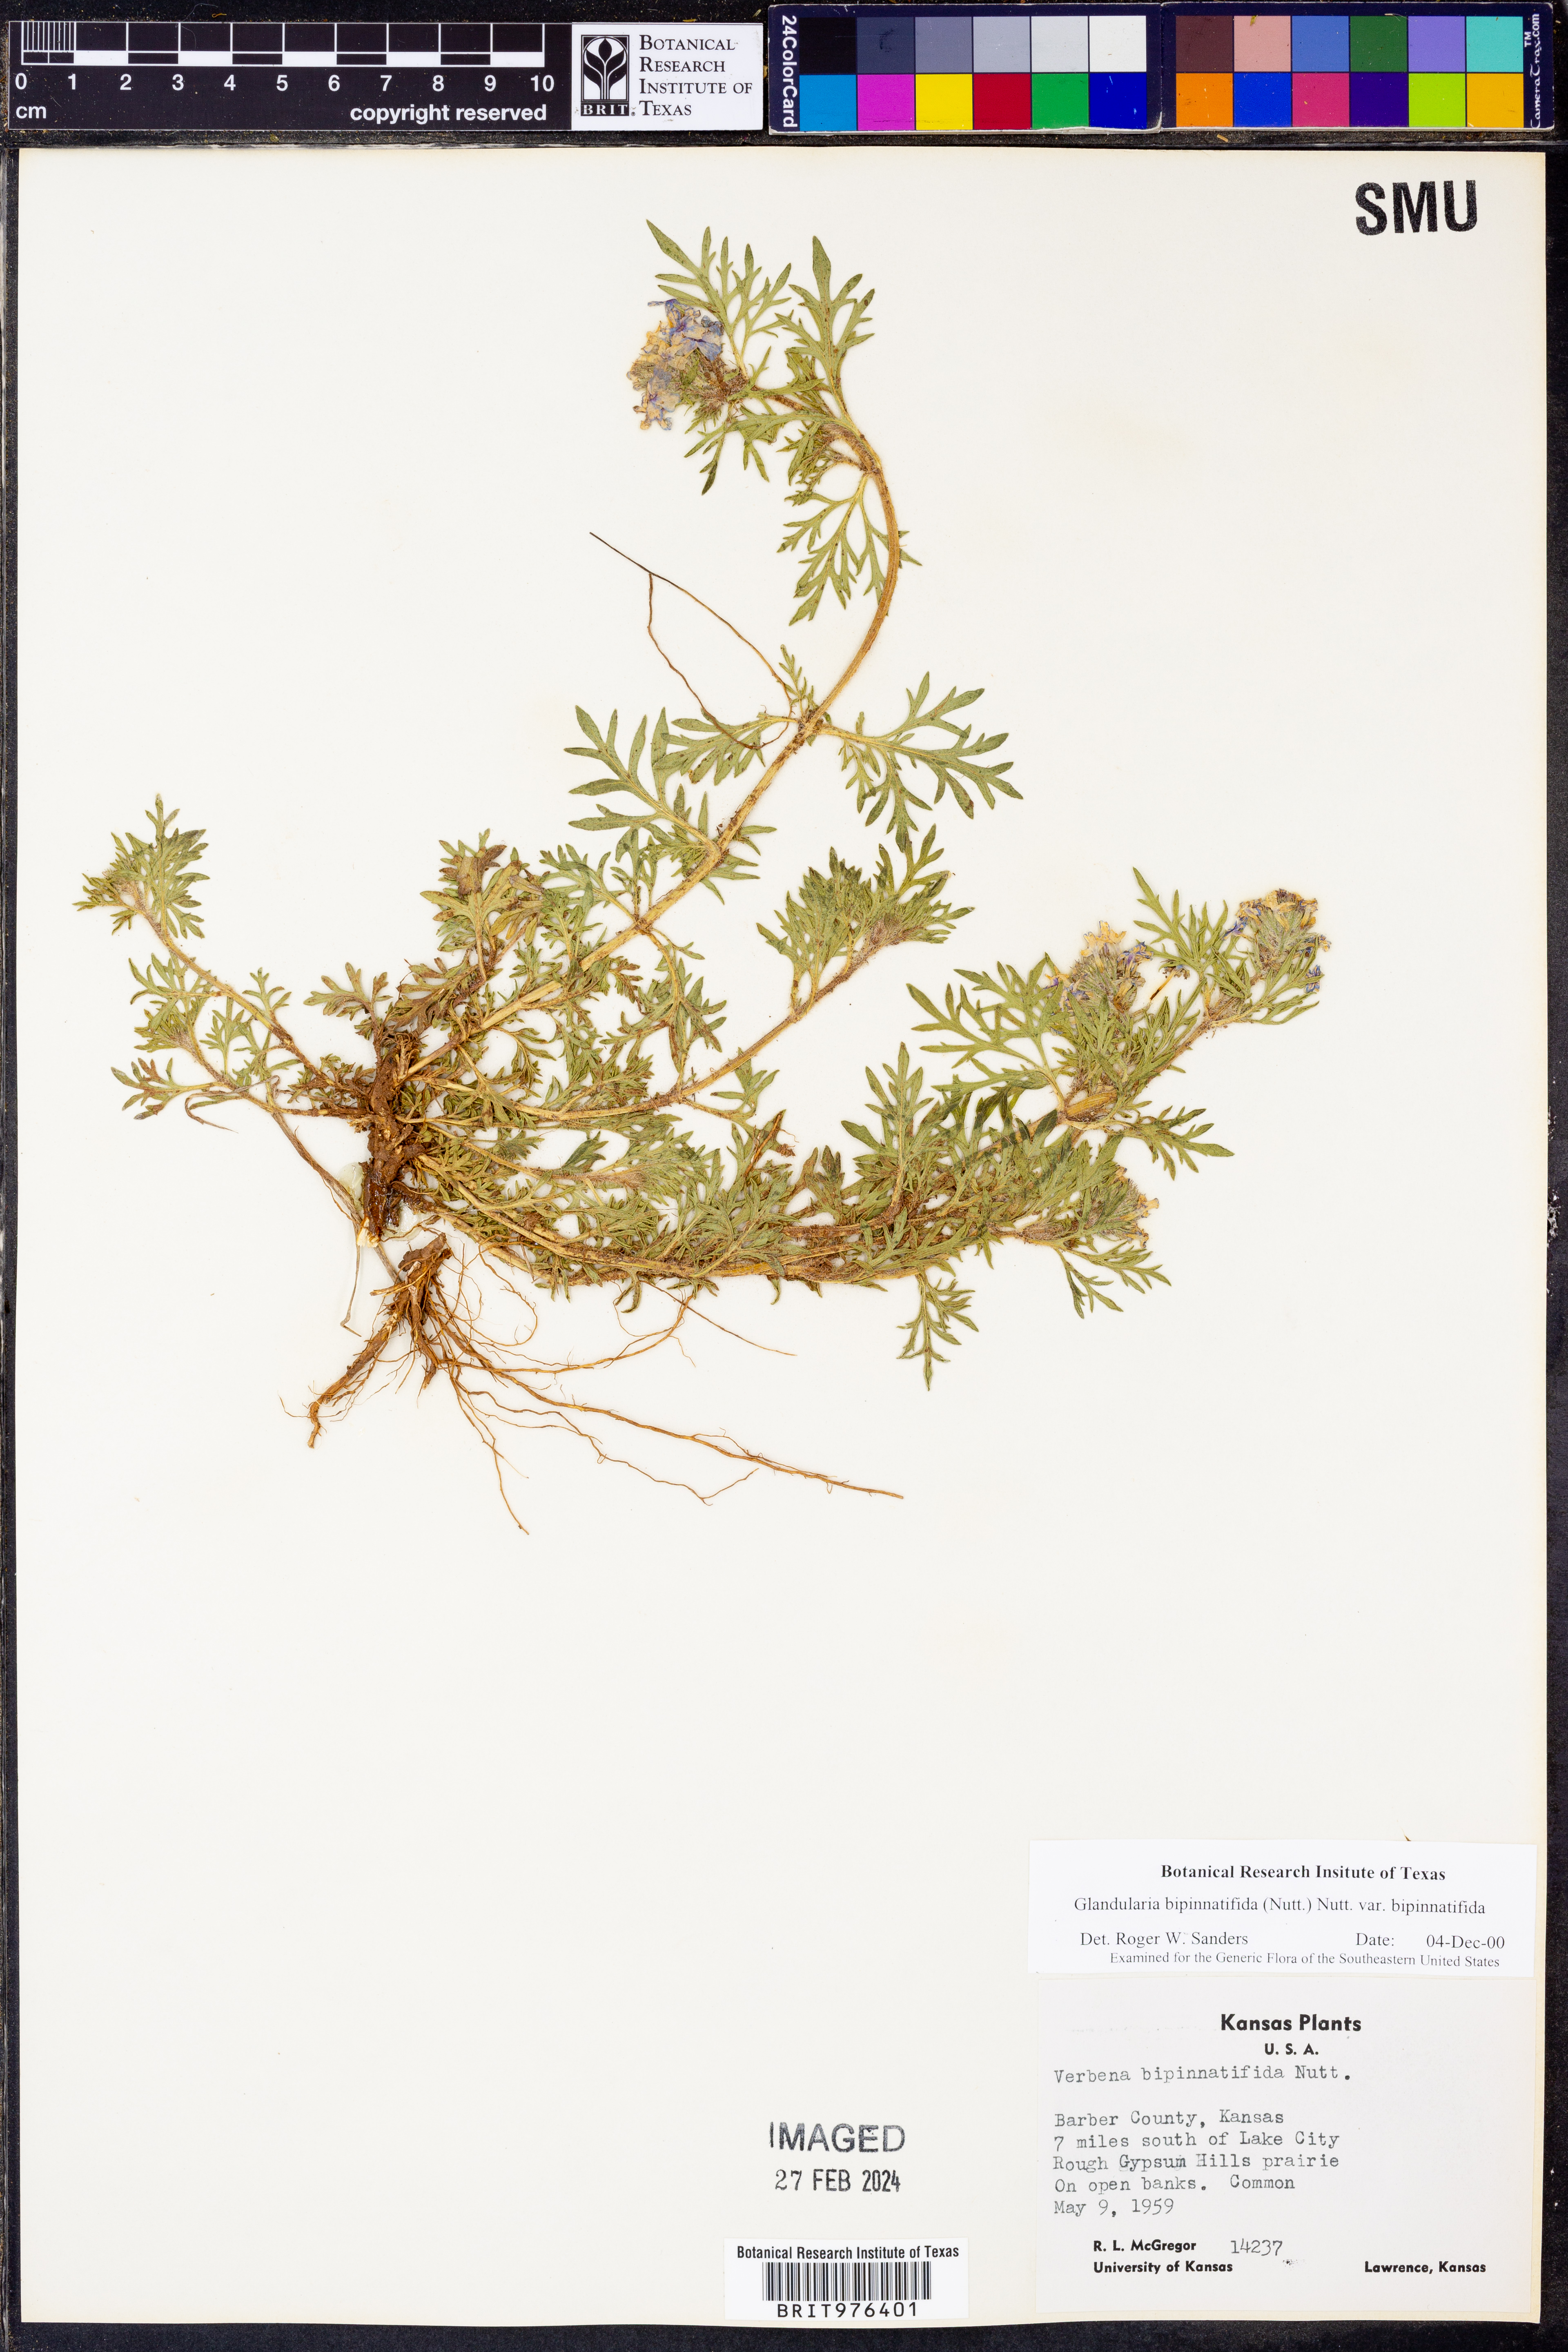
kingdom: Plantae
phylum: Tracheophyta
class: Magnoliopsida
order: Lamiales
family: Verbenaceae
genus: Verbena
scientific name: Verbena bipinnatifida
